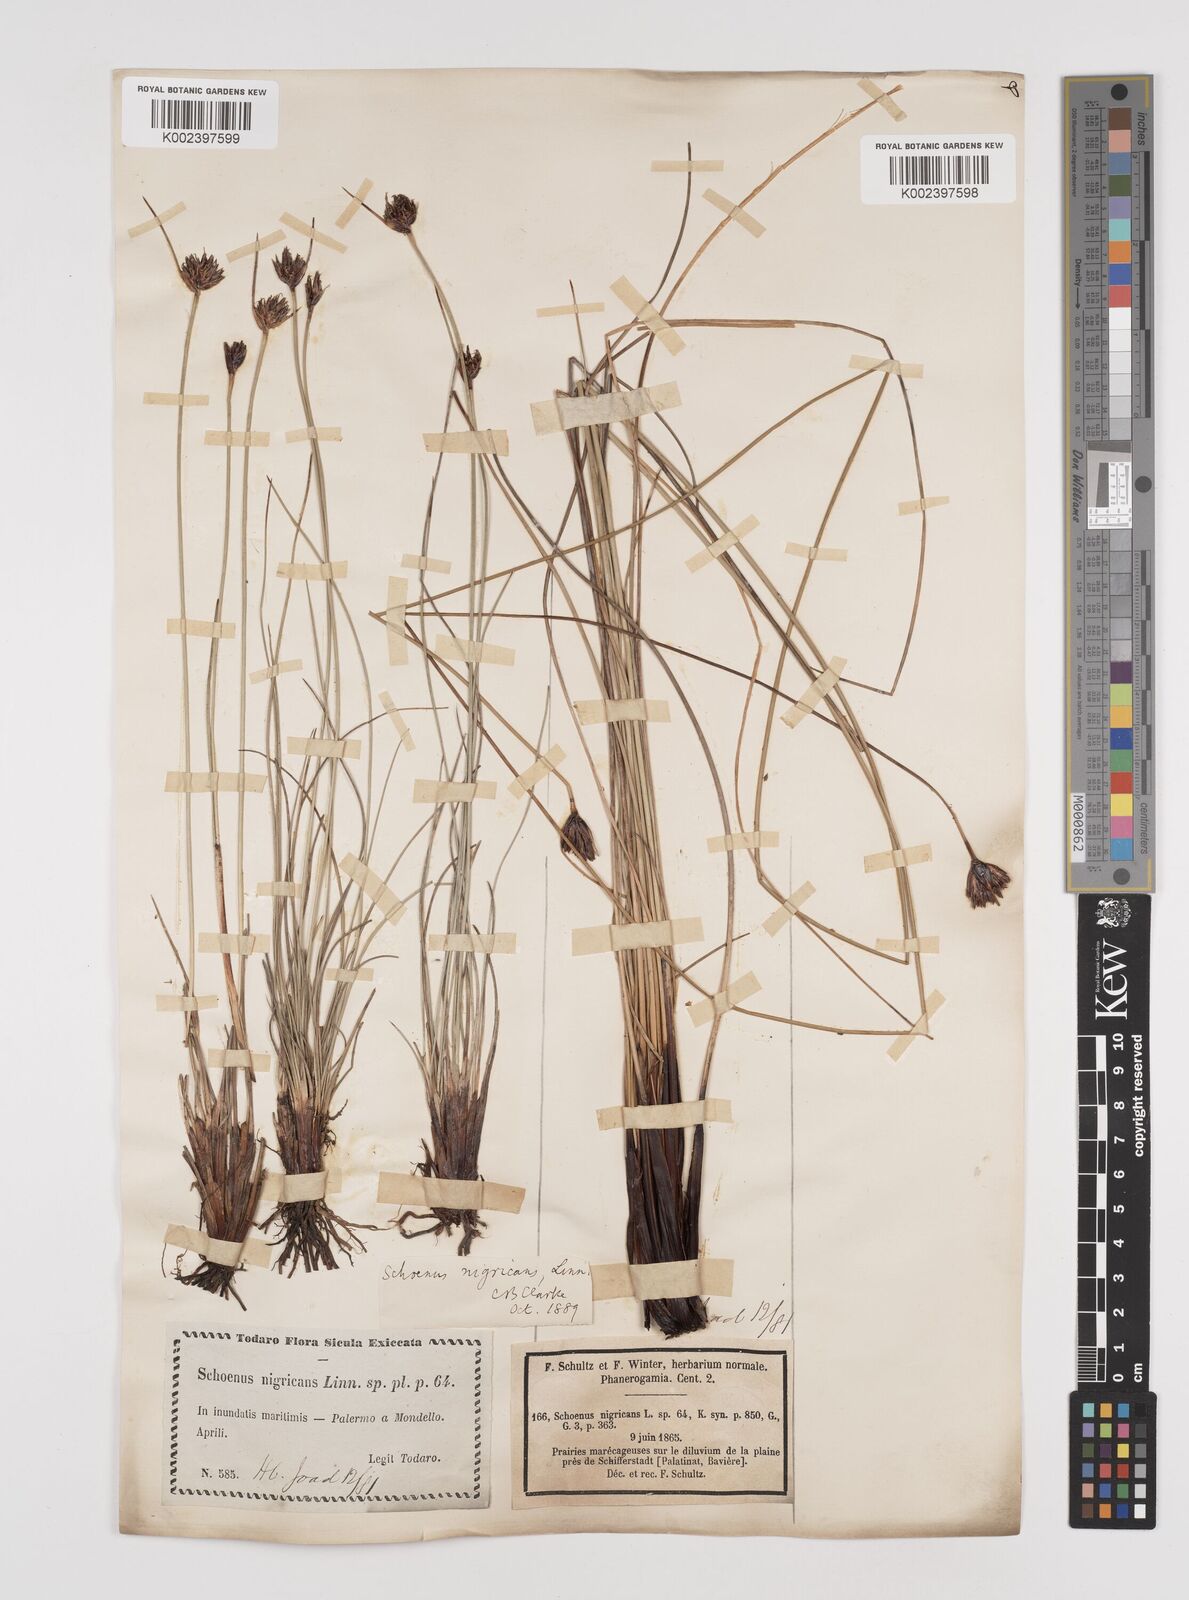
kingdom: Plantae
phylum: Tracheophyta
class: Liliopsida
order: Poales
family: Cyperaceae
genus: Schoenus
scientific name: Schoenus nigricans
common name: Black bog-rush
